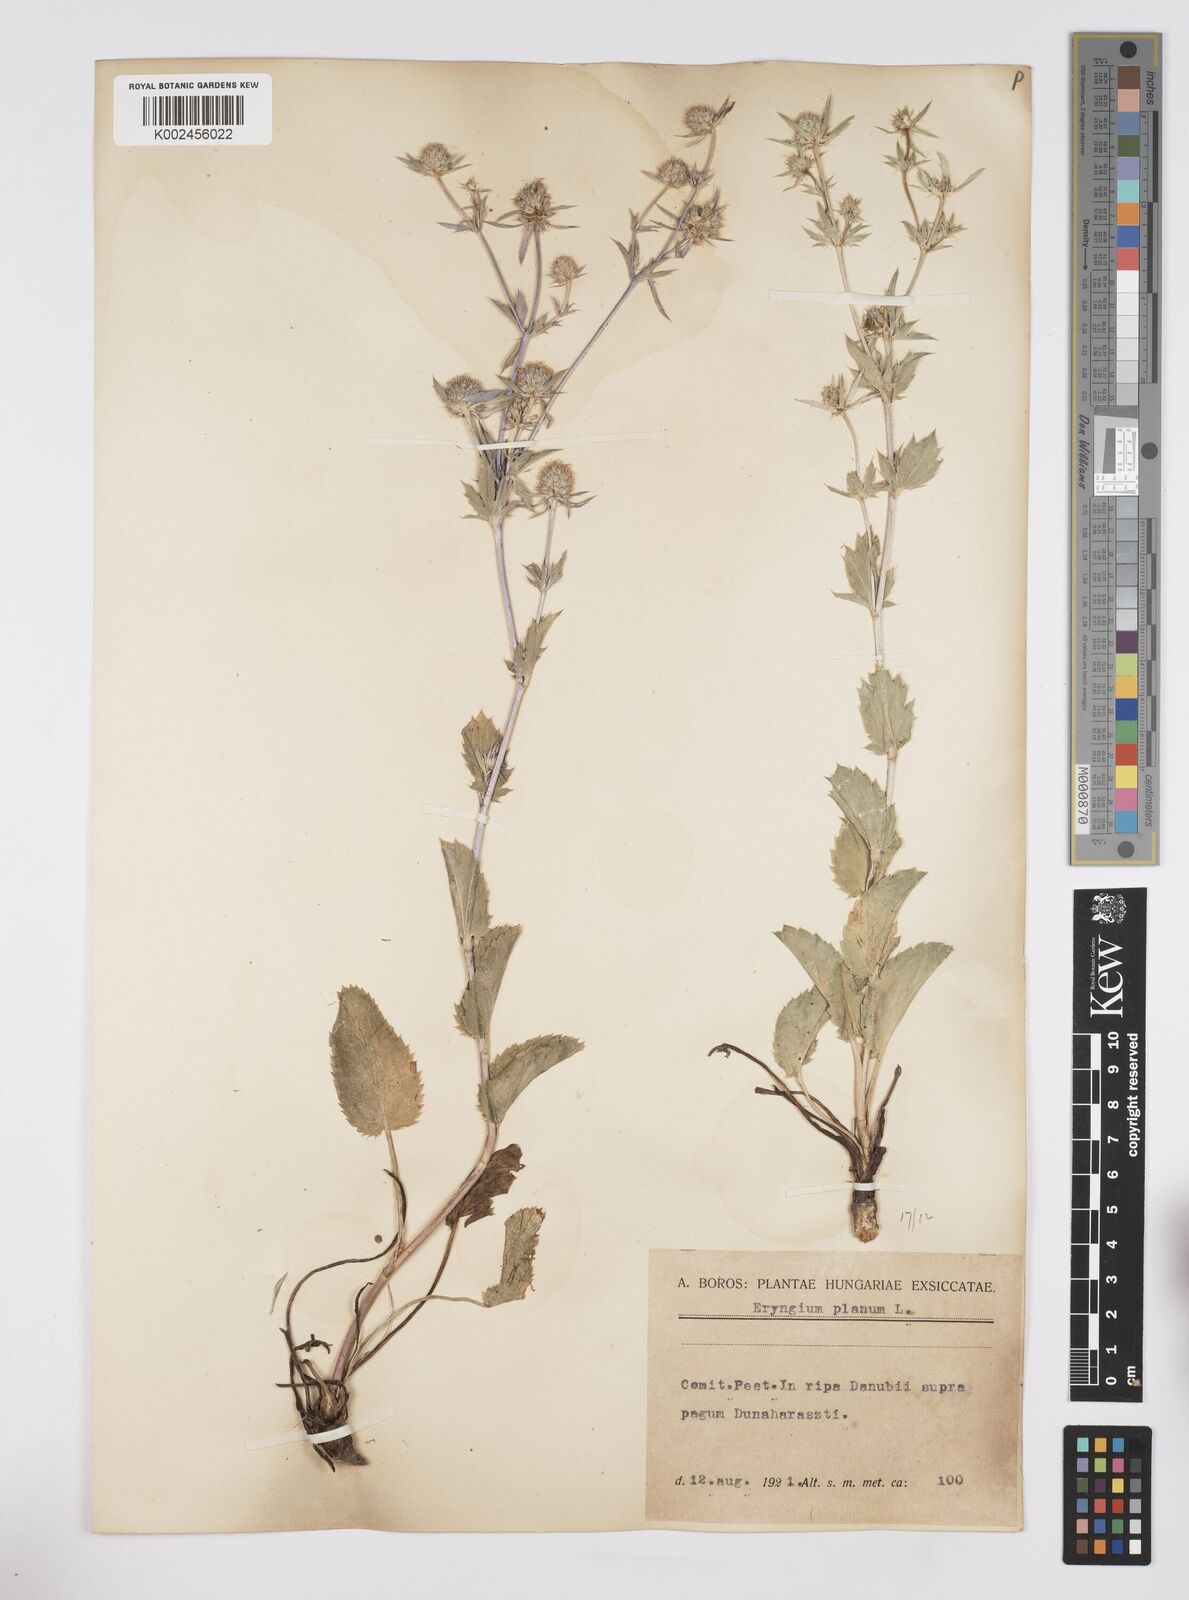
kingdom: Plantae
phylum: Tracheophyta
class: Magnoliopsida
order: Apiales
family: Apiaceae
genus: Eryngium
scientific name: Eryngium planum
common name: Blue eryngo
